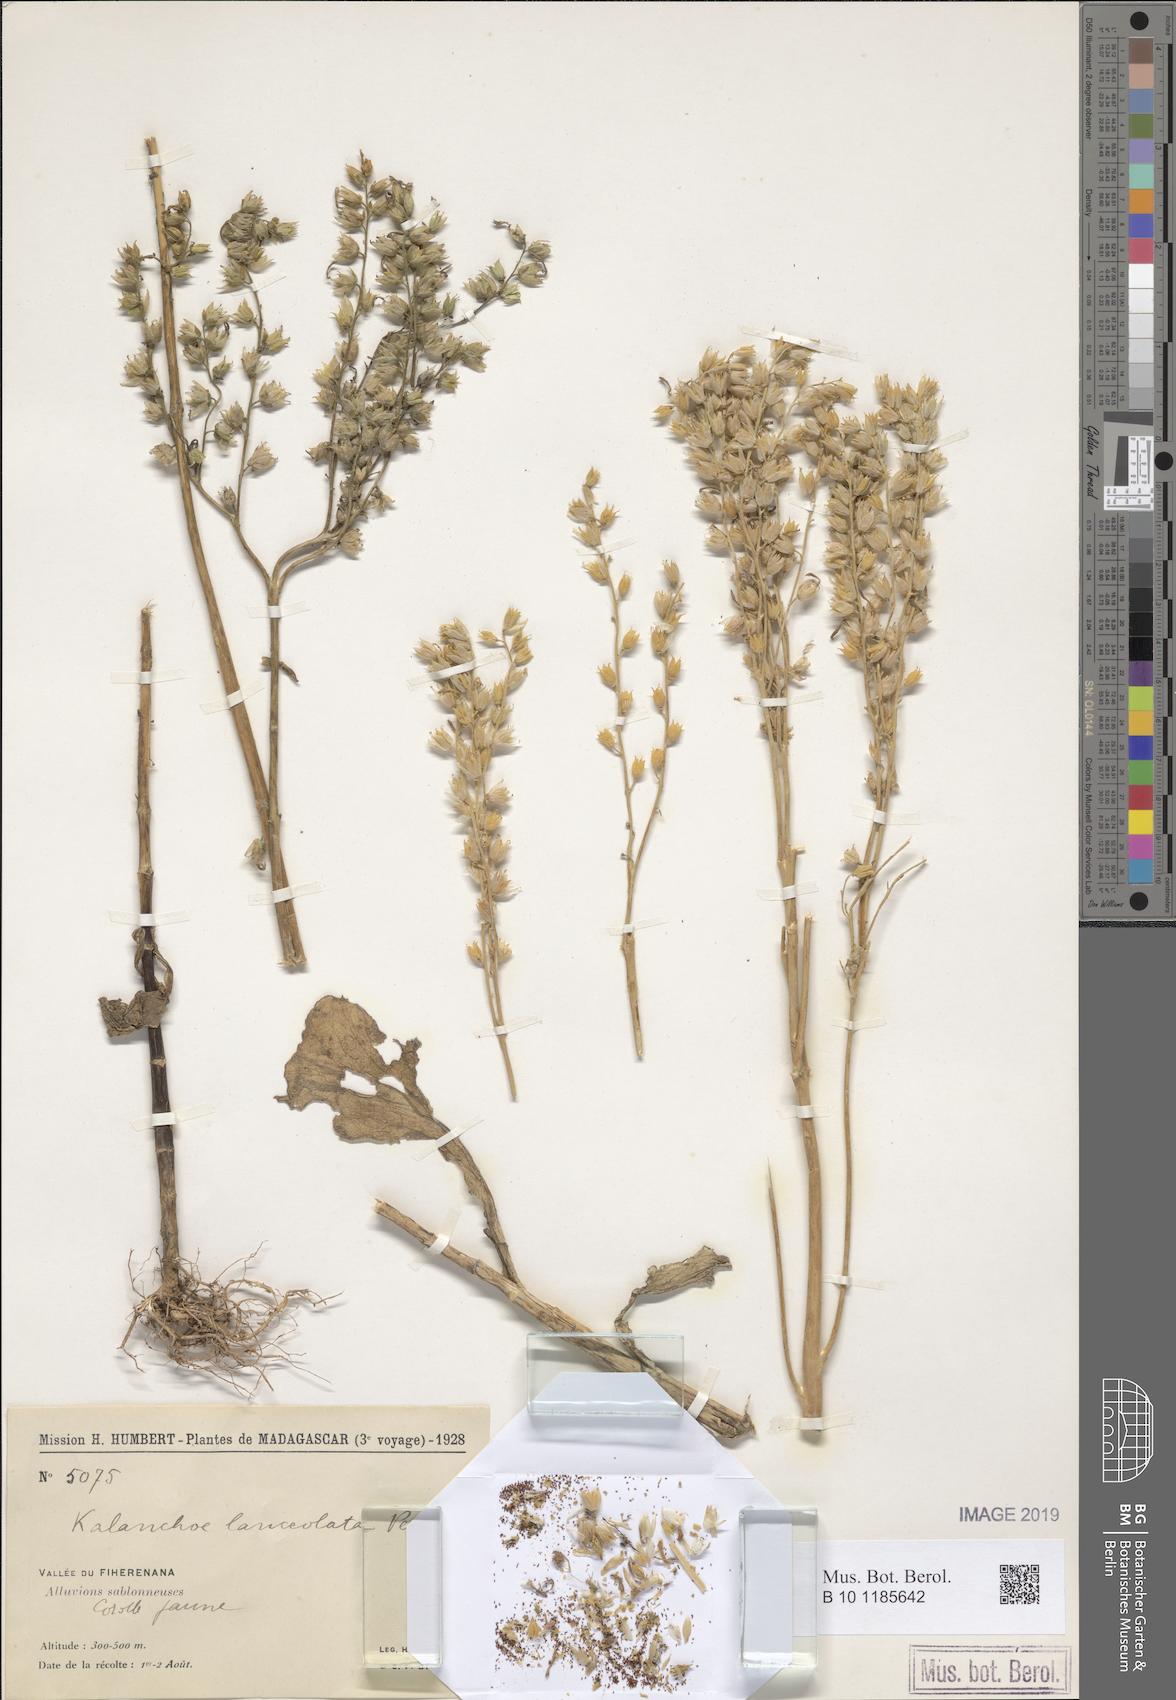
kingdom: Plantae
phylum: Tracheophyta
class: Magnoliopsida
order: Saxifragales
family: Crassulaceae
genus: Kalanchoe
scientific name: Kalanchoe lanceolata
